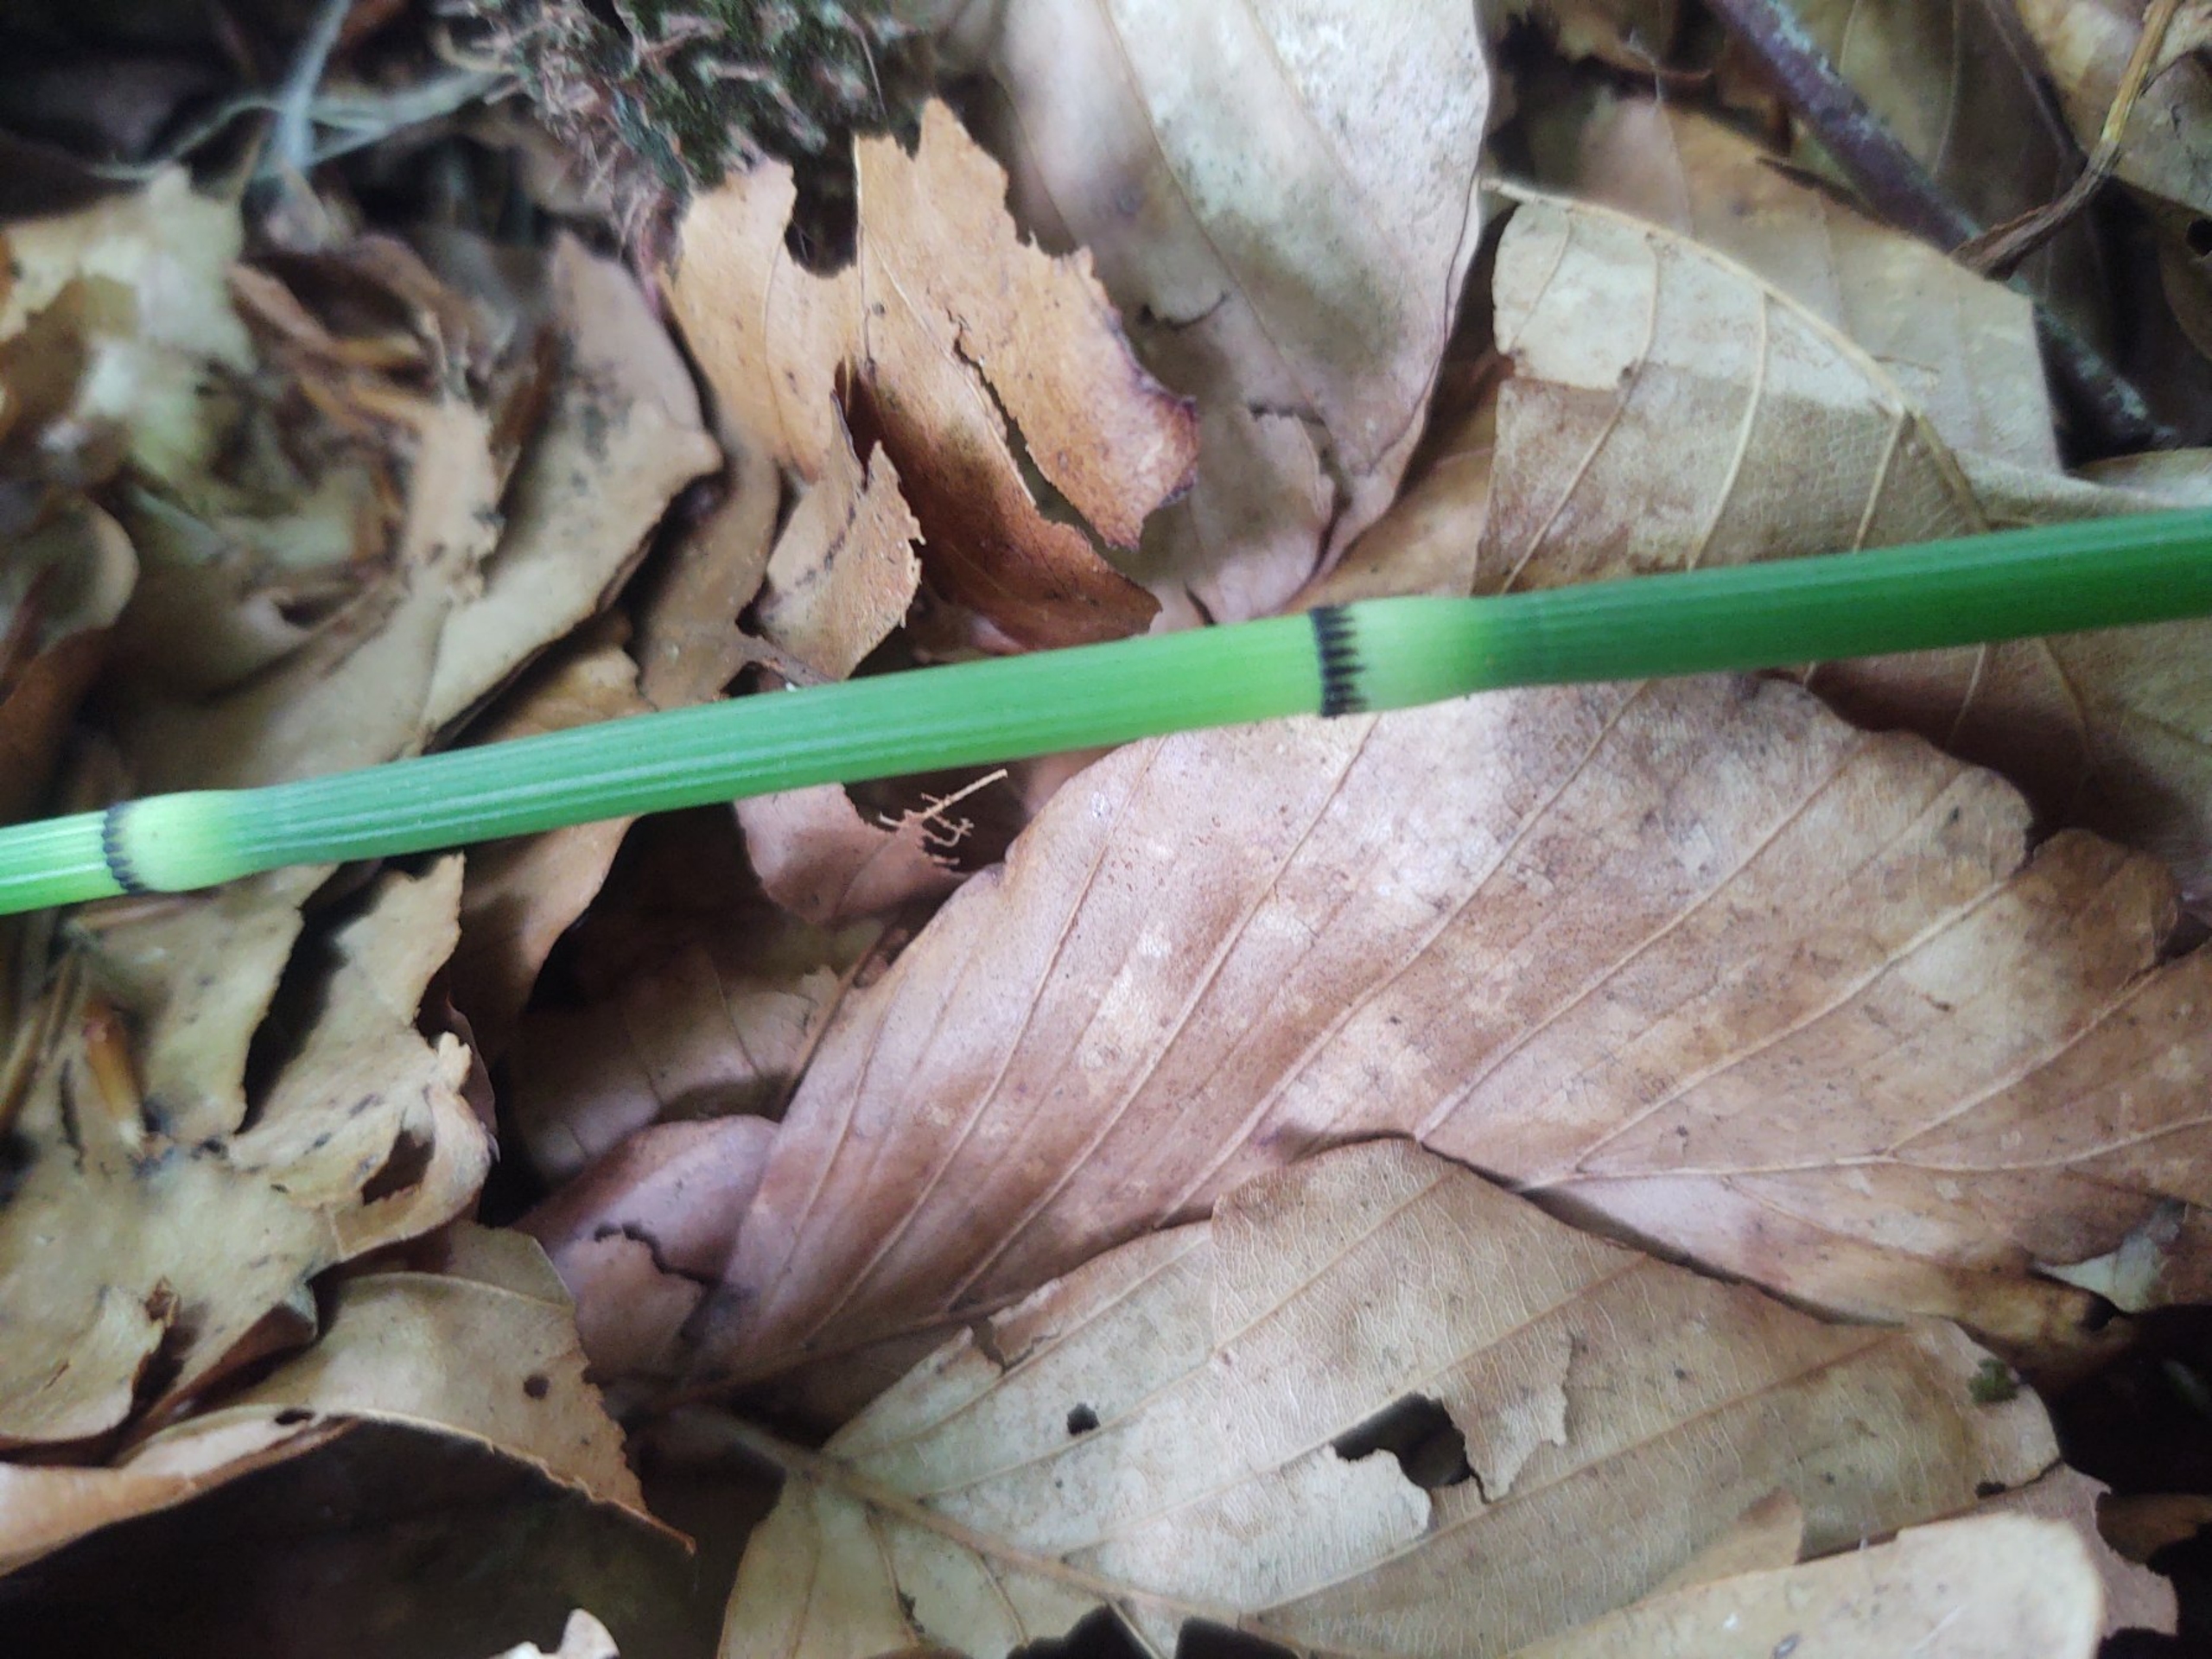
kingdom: Plantae
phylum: Tracheophyta
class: Polypodiopsida
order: Equisetales
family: Equisetaceae
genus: Equisetum
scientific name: Equisetum hyemale
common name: Skavgræs
